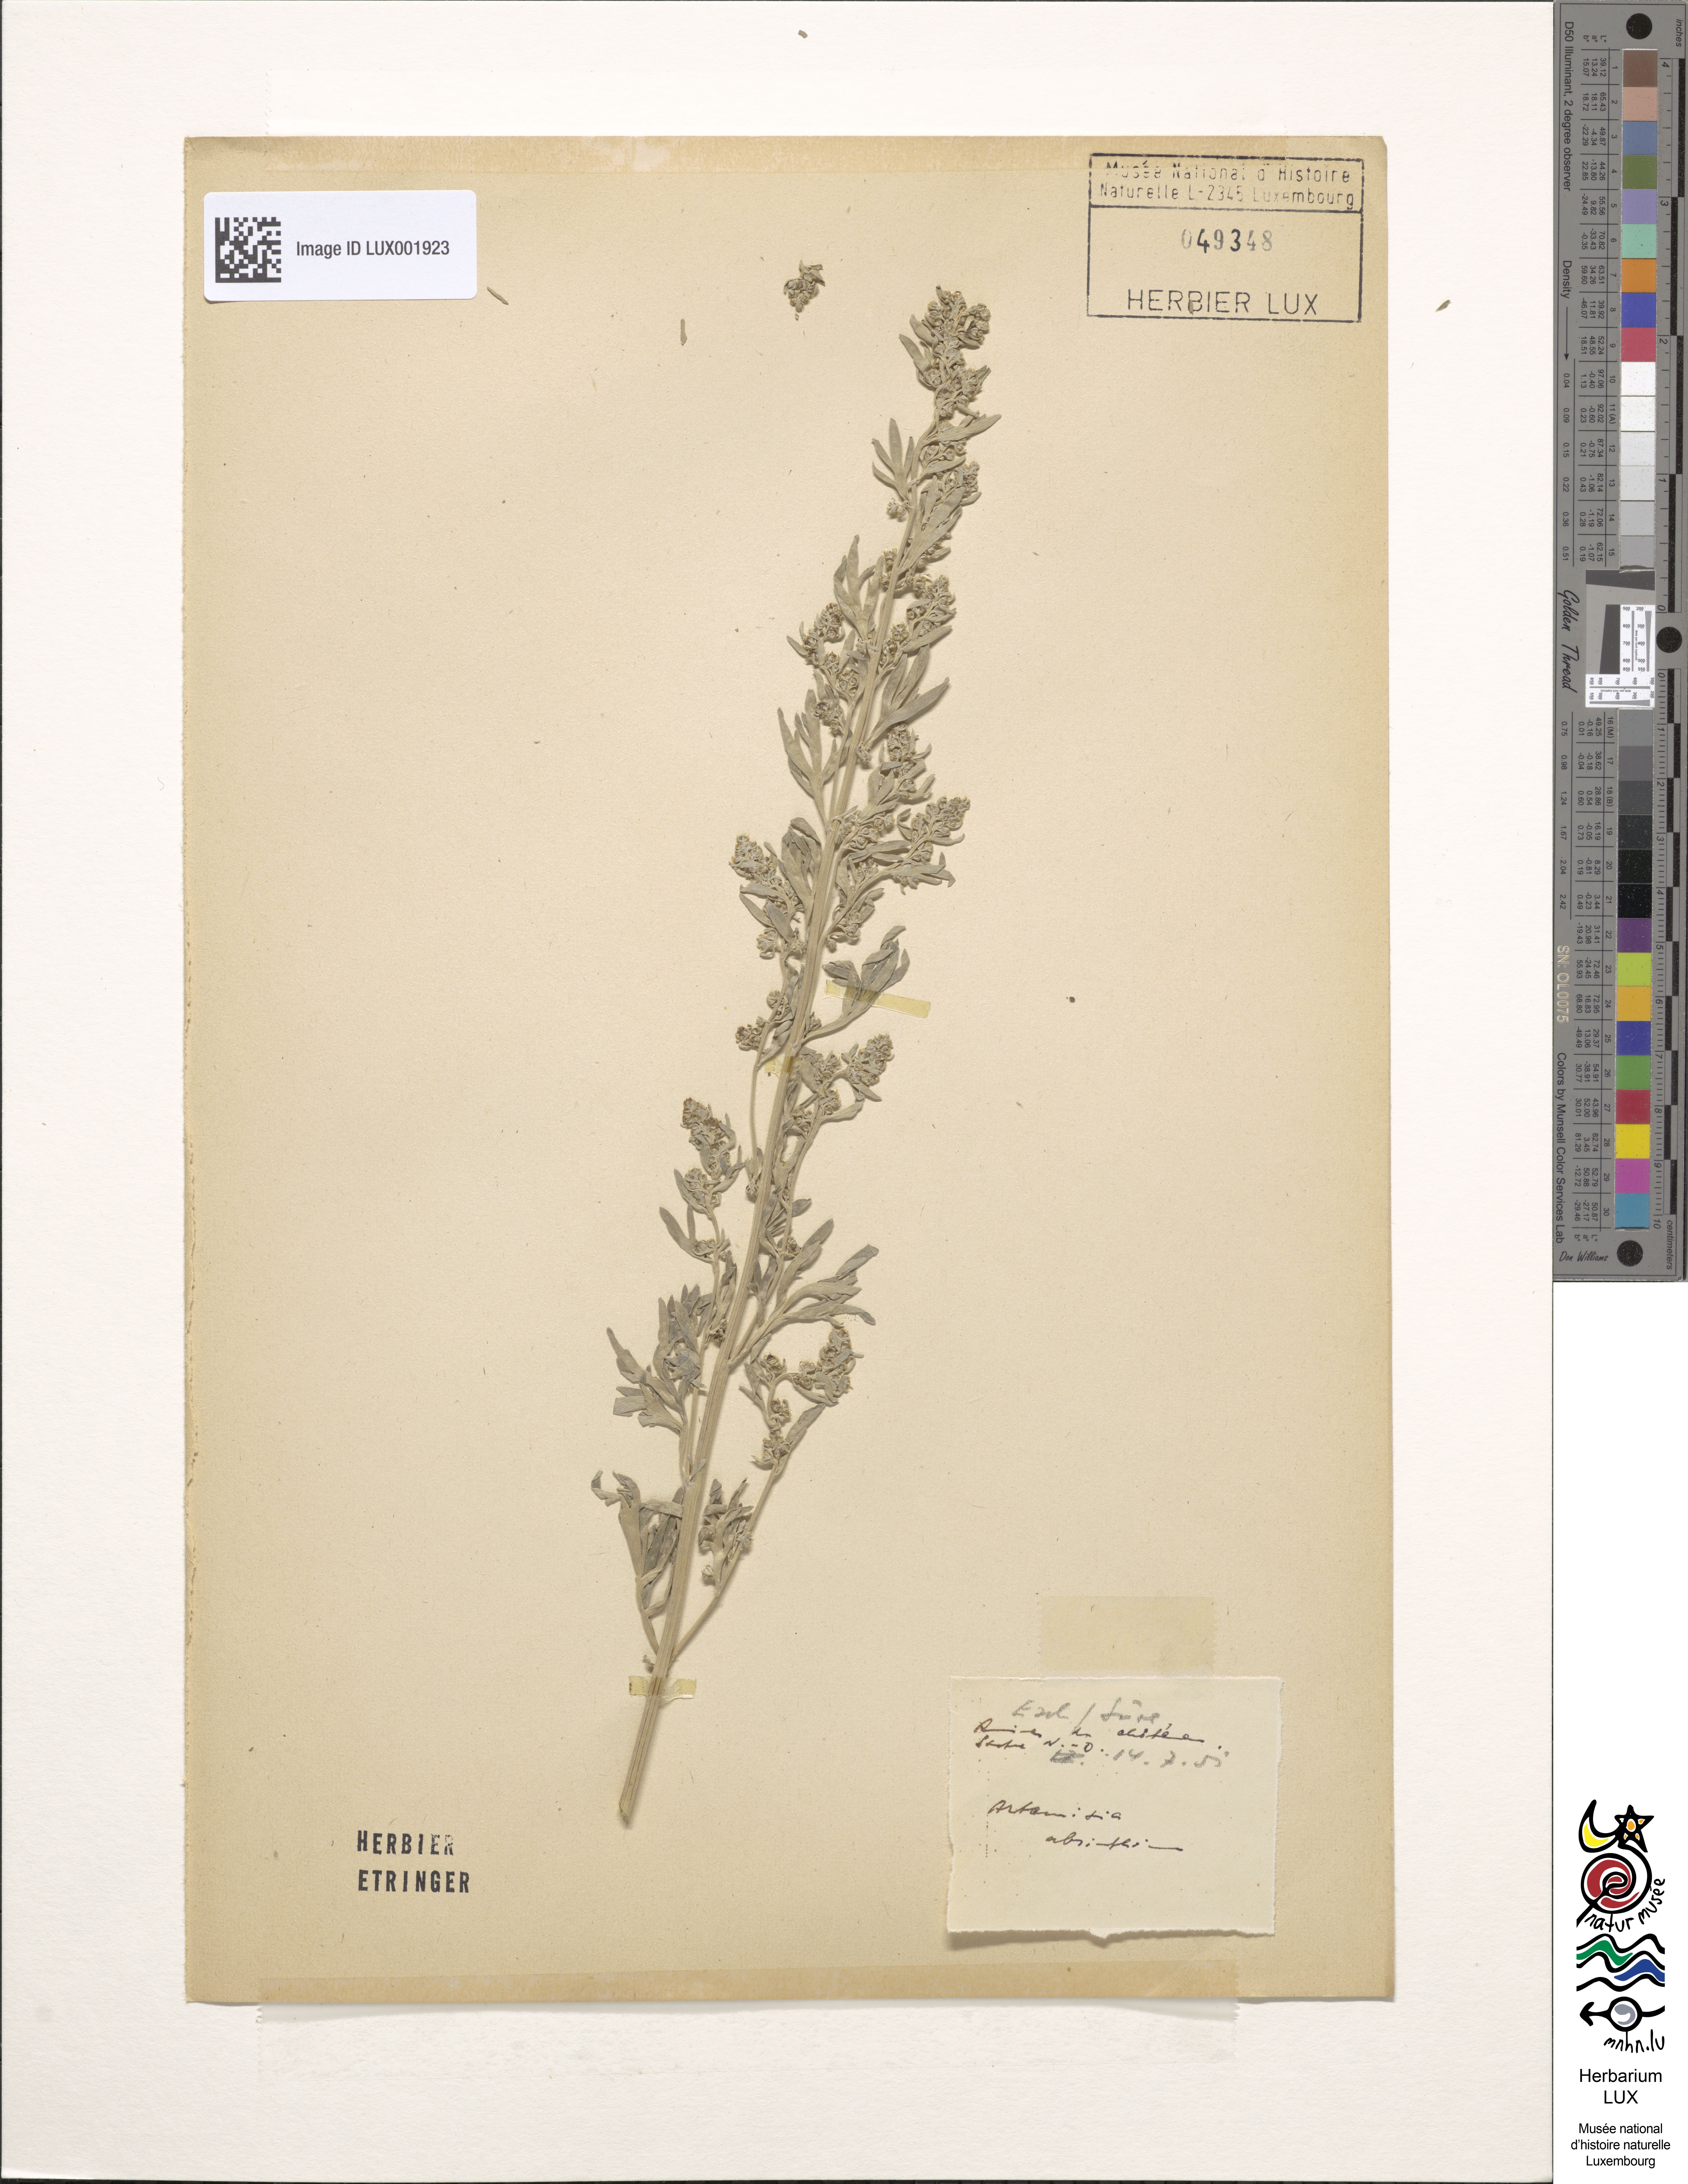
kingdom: Plantae
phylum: Tracheophyta
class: Magnoliopsida
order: Asterales
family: Asteraceae
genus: Artemisia
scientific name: Artemisia absinthium
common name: Wormwood
